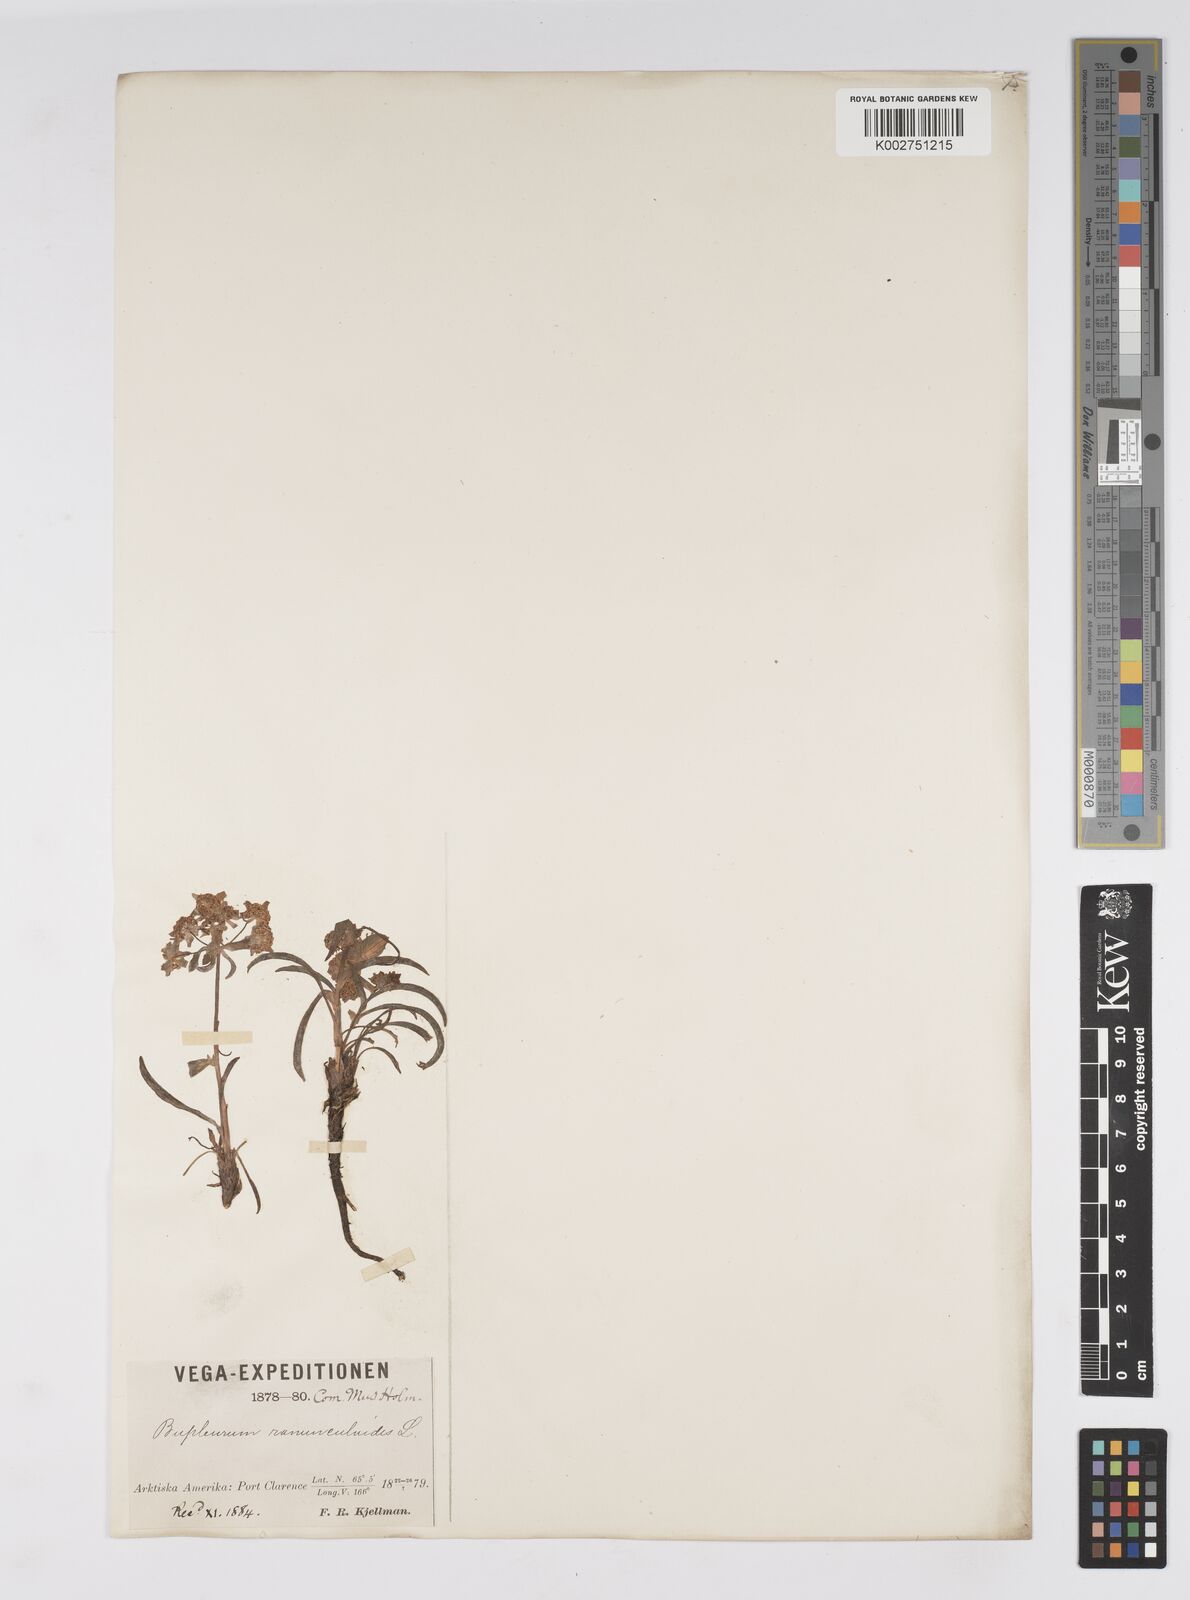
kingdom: Plantae
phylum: Tracheophyta
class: Magnoliopsida
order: Apiales
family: Apiaceae
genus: Bupleurum
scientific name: Bupleurum americanum
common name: American thoroughwax
